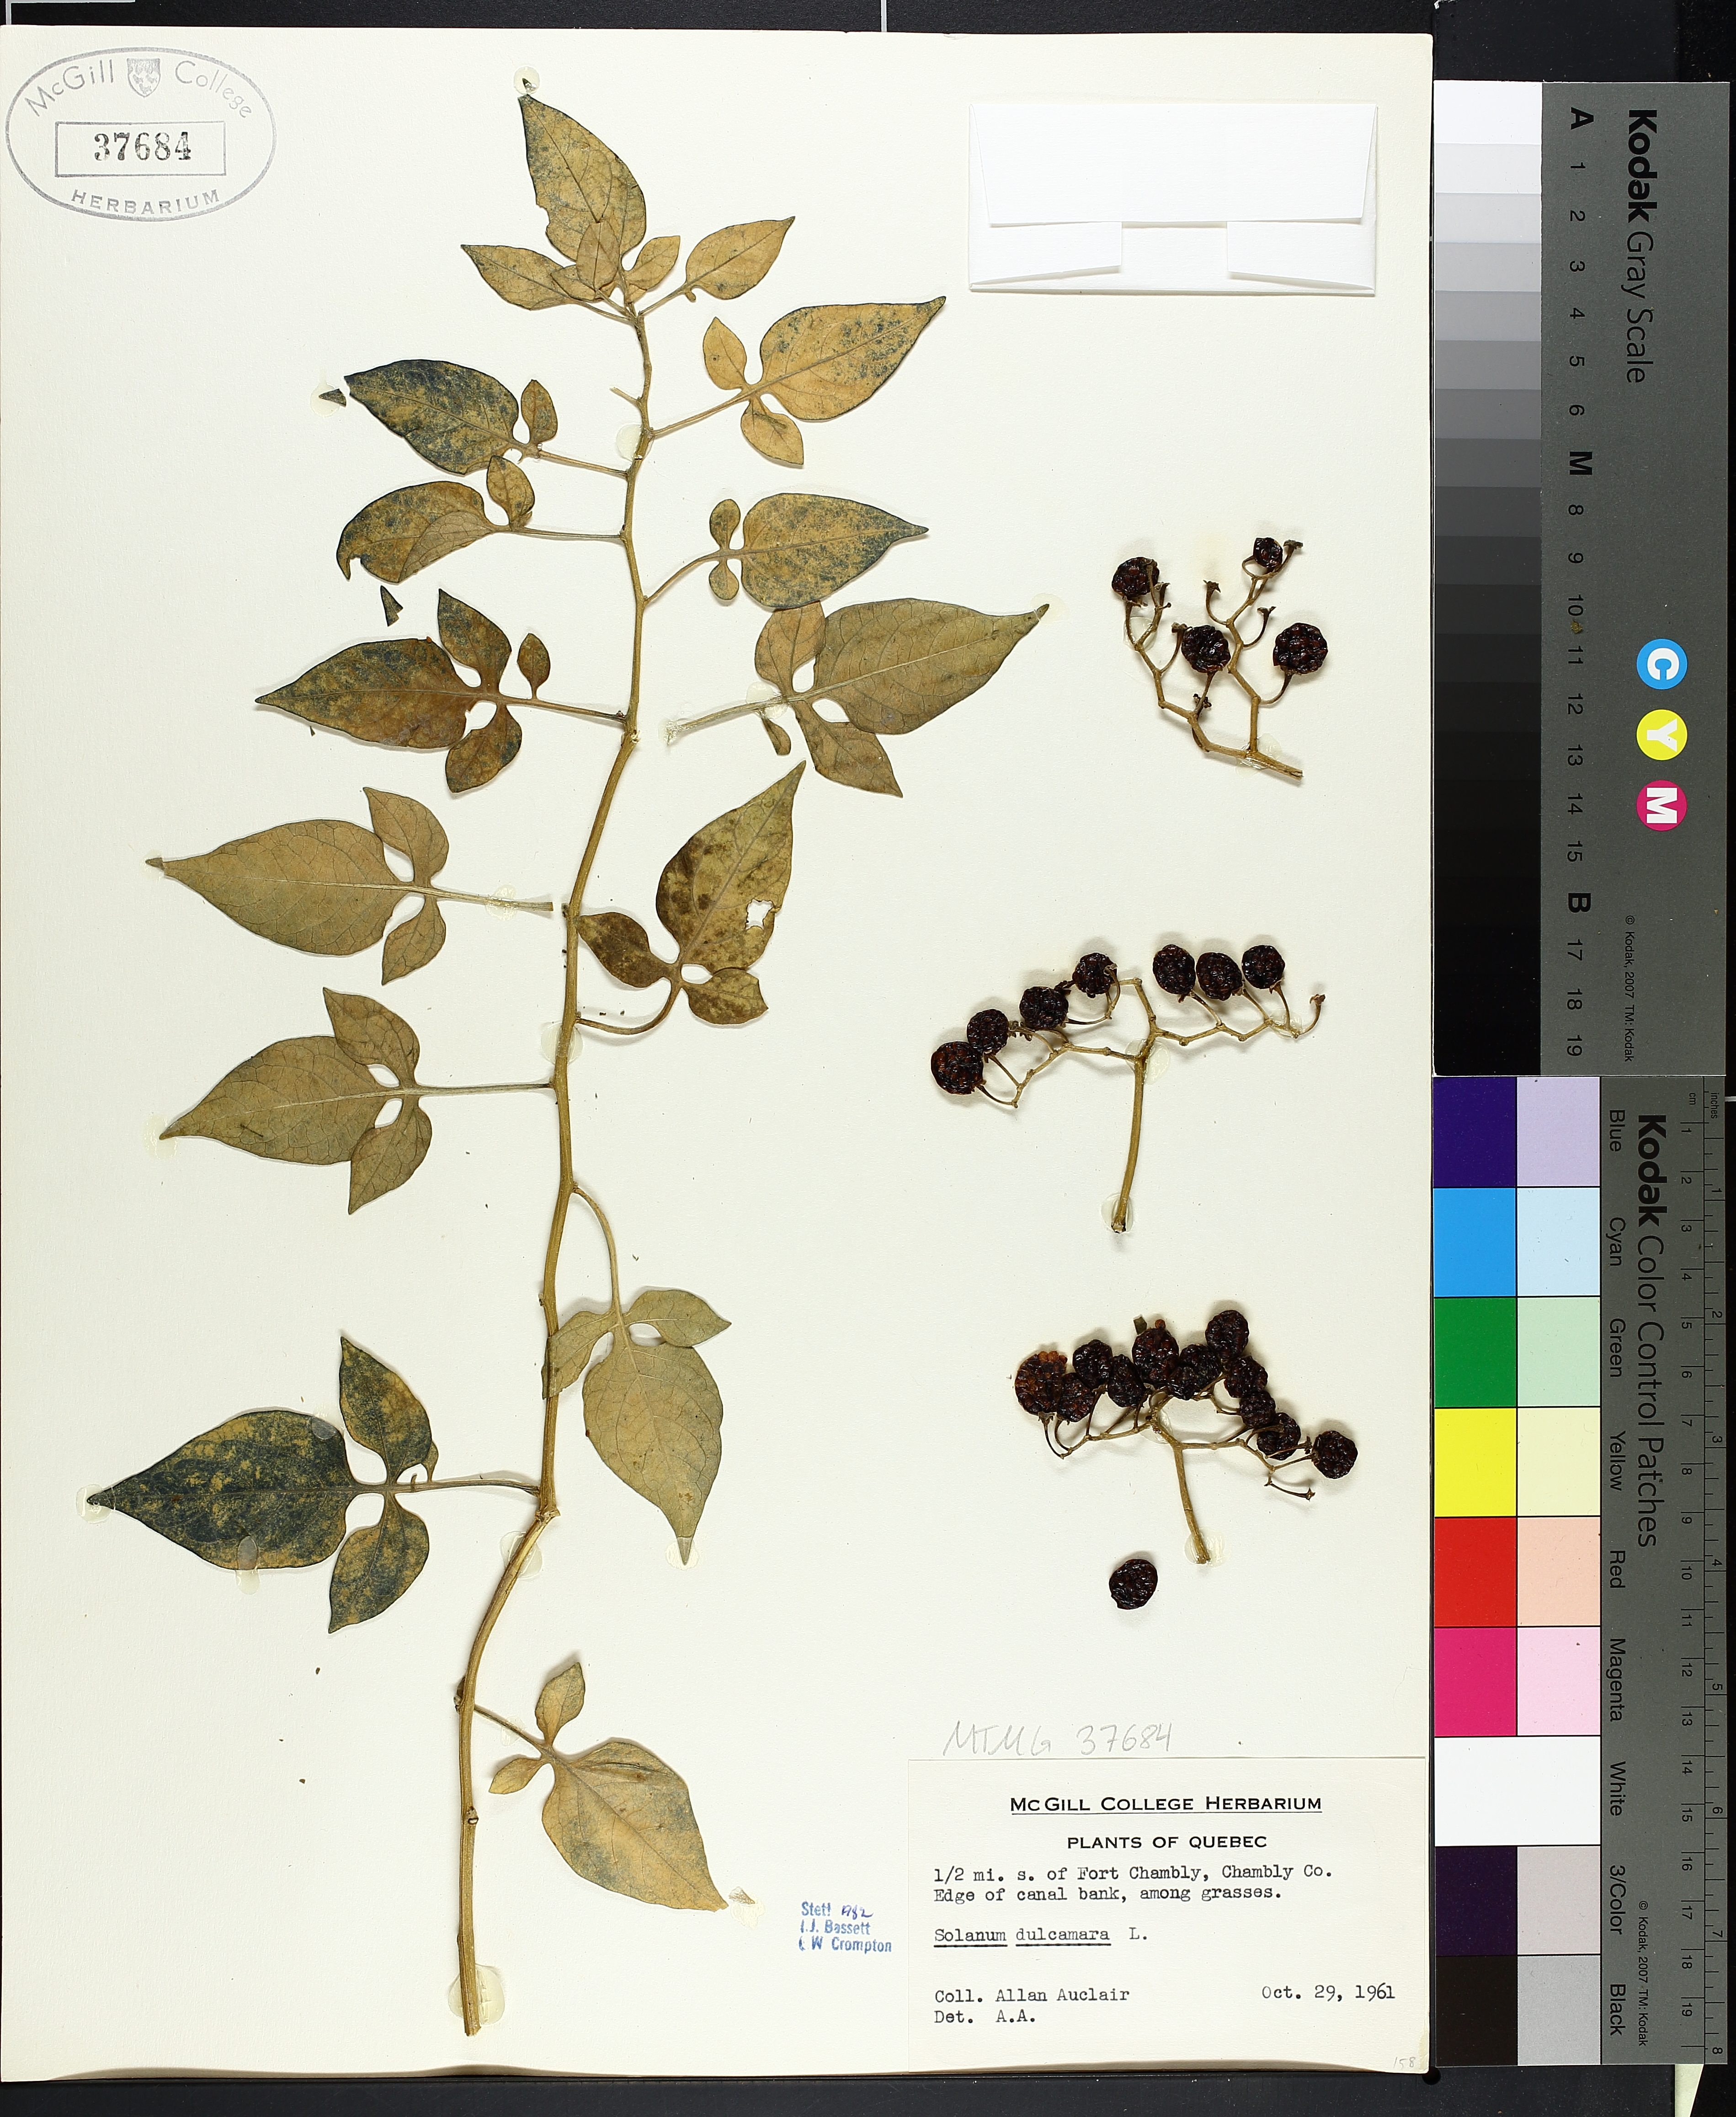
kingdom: Plantae
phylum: Tracheophyta
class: Magnoliopsida
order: Solanales
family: Solanaceae
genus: Solanum
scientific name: Solanum dulcamara
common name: Climbing nightshade
